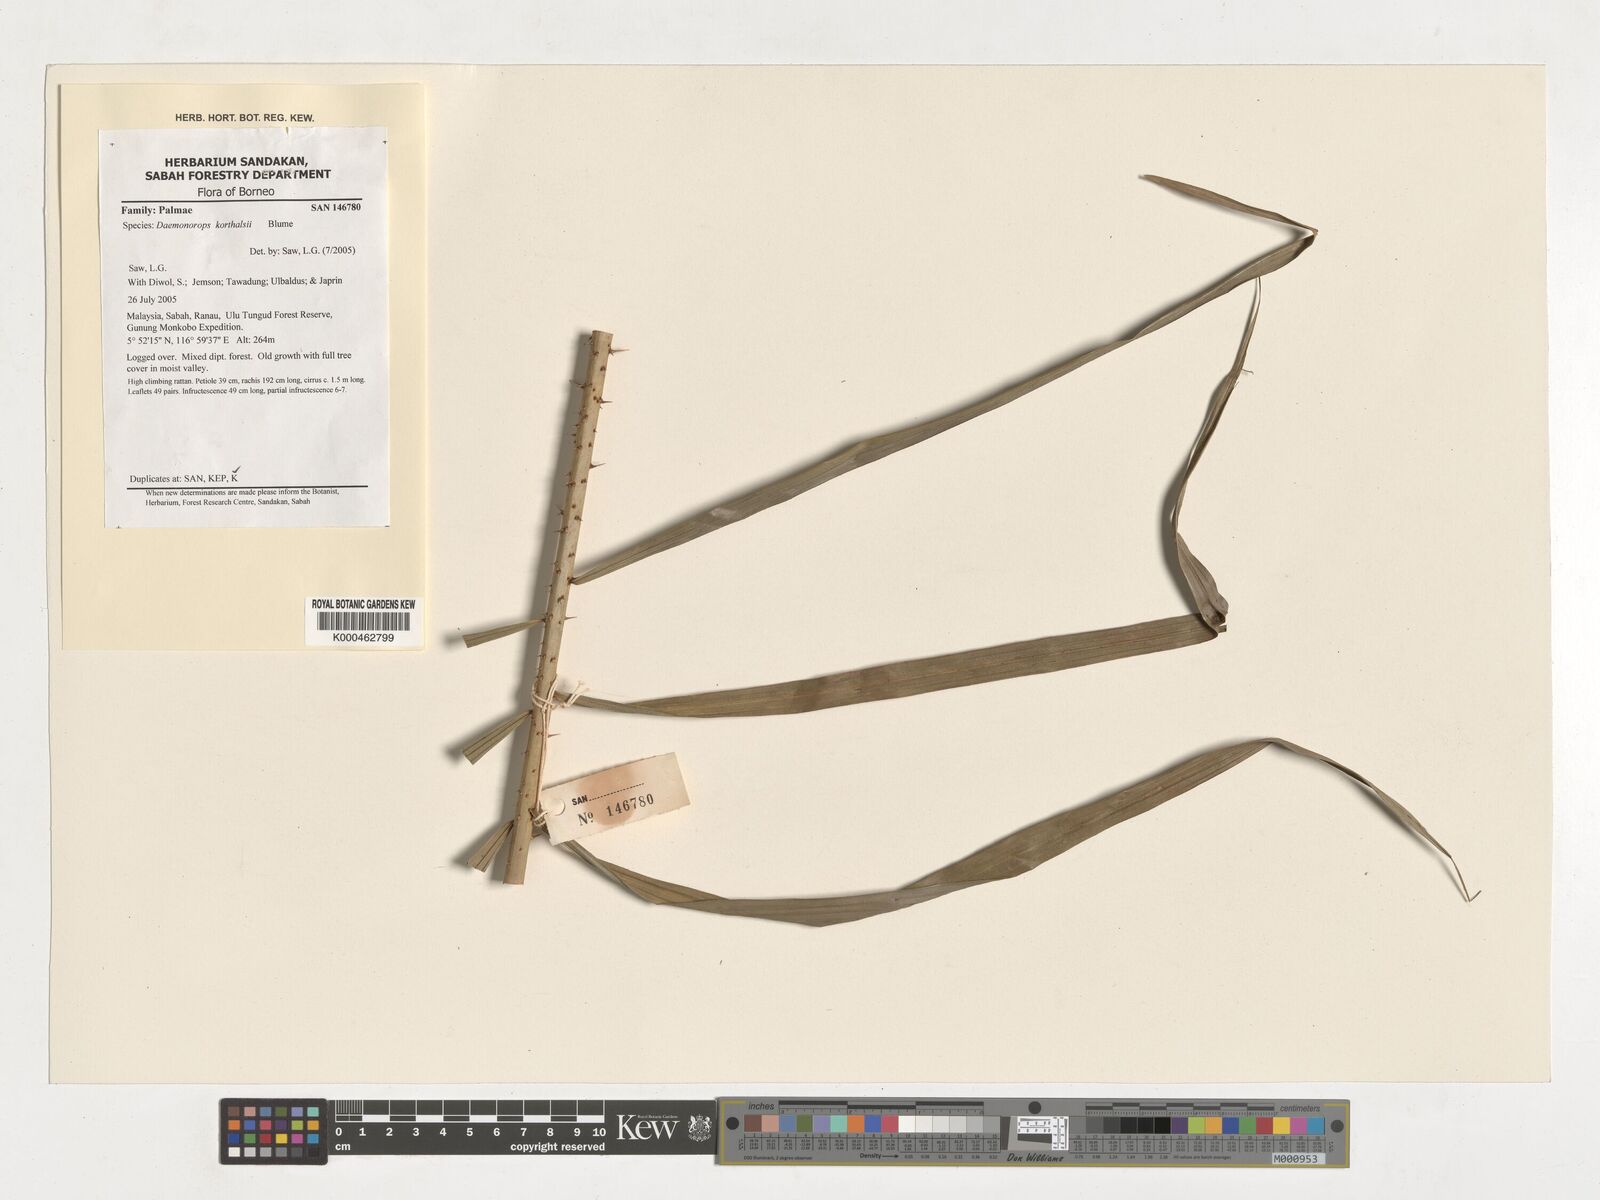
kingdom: Plantae
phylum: Tracheophyta
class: Liliopsida
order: Arecales
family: Arecaceae
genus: Calamus
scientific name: Calamus hirsutus
